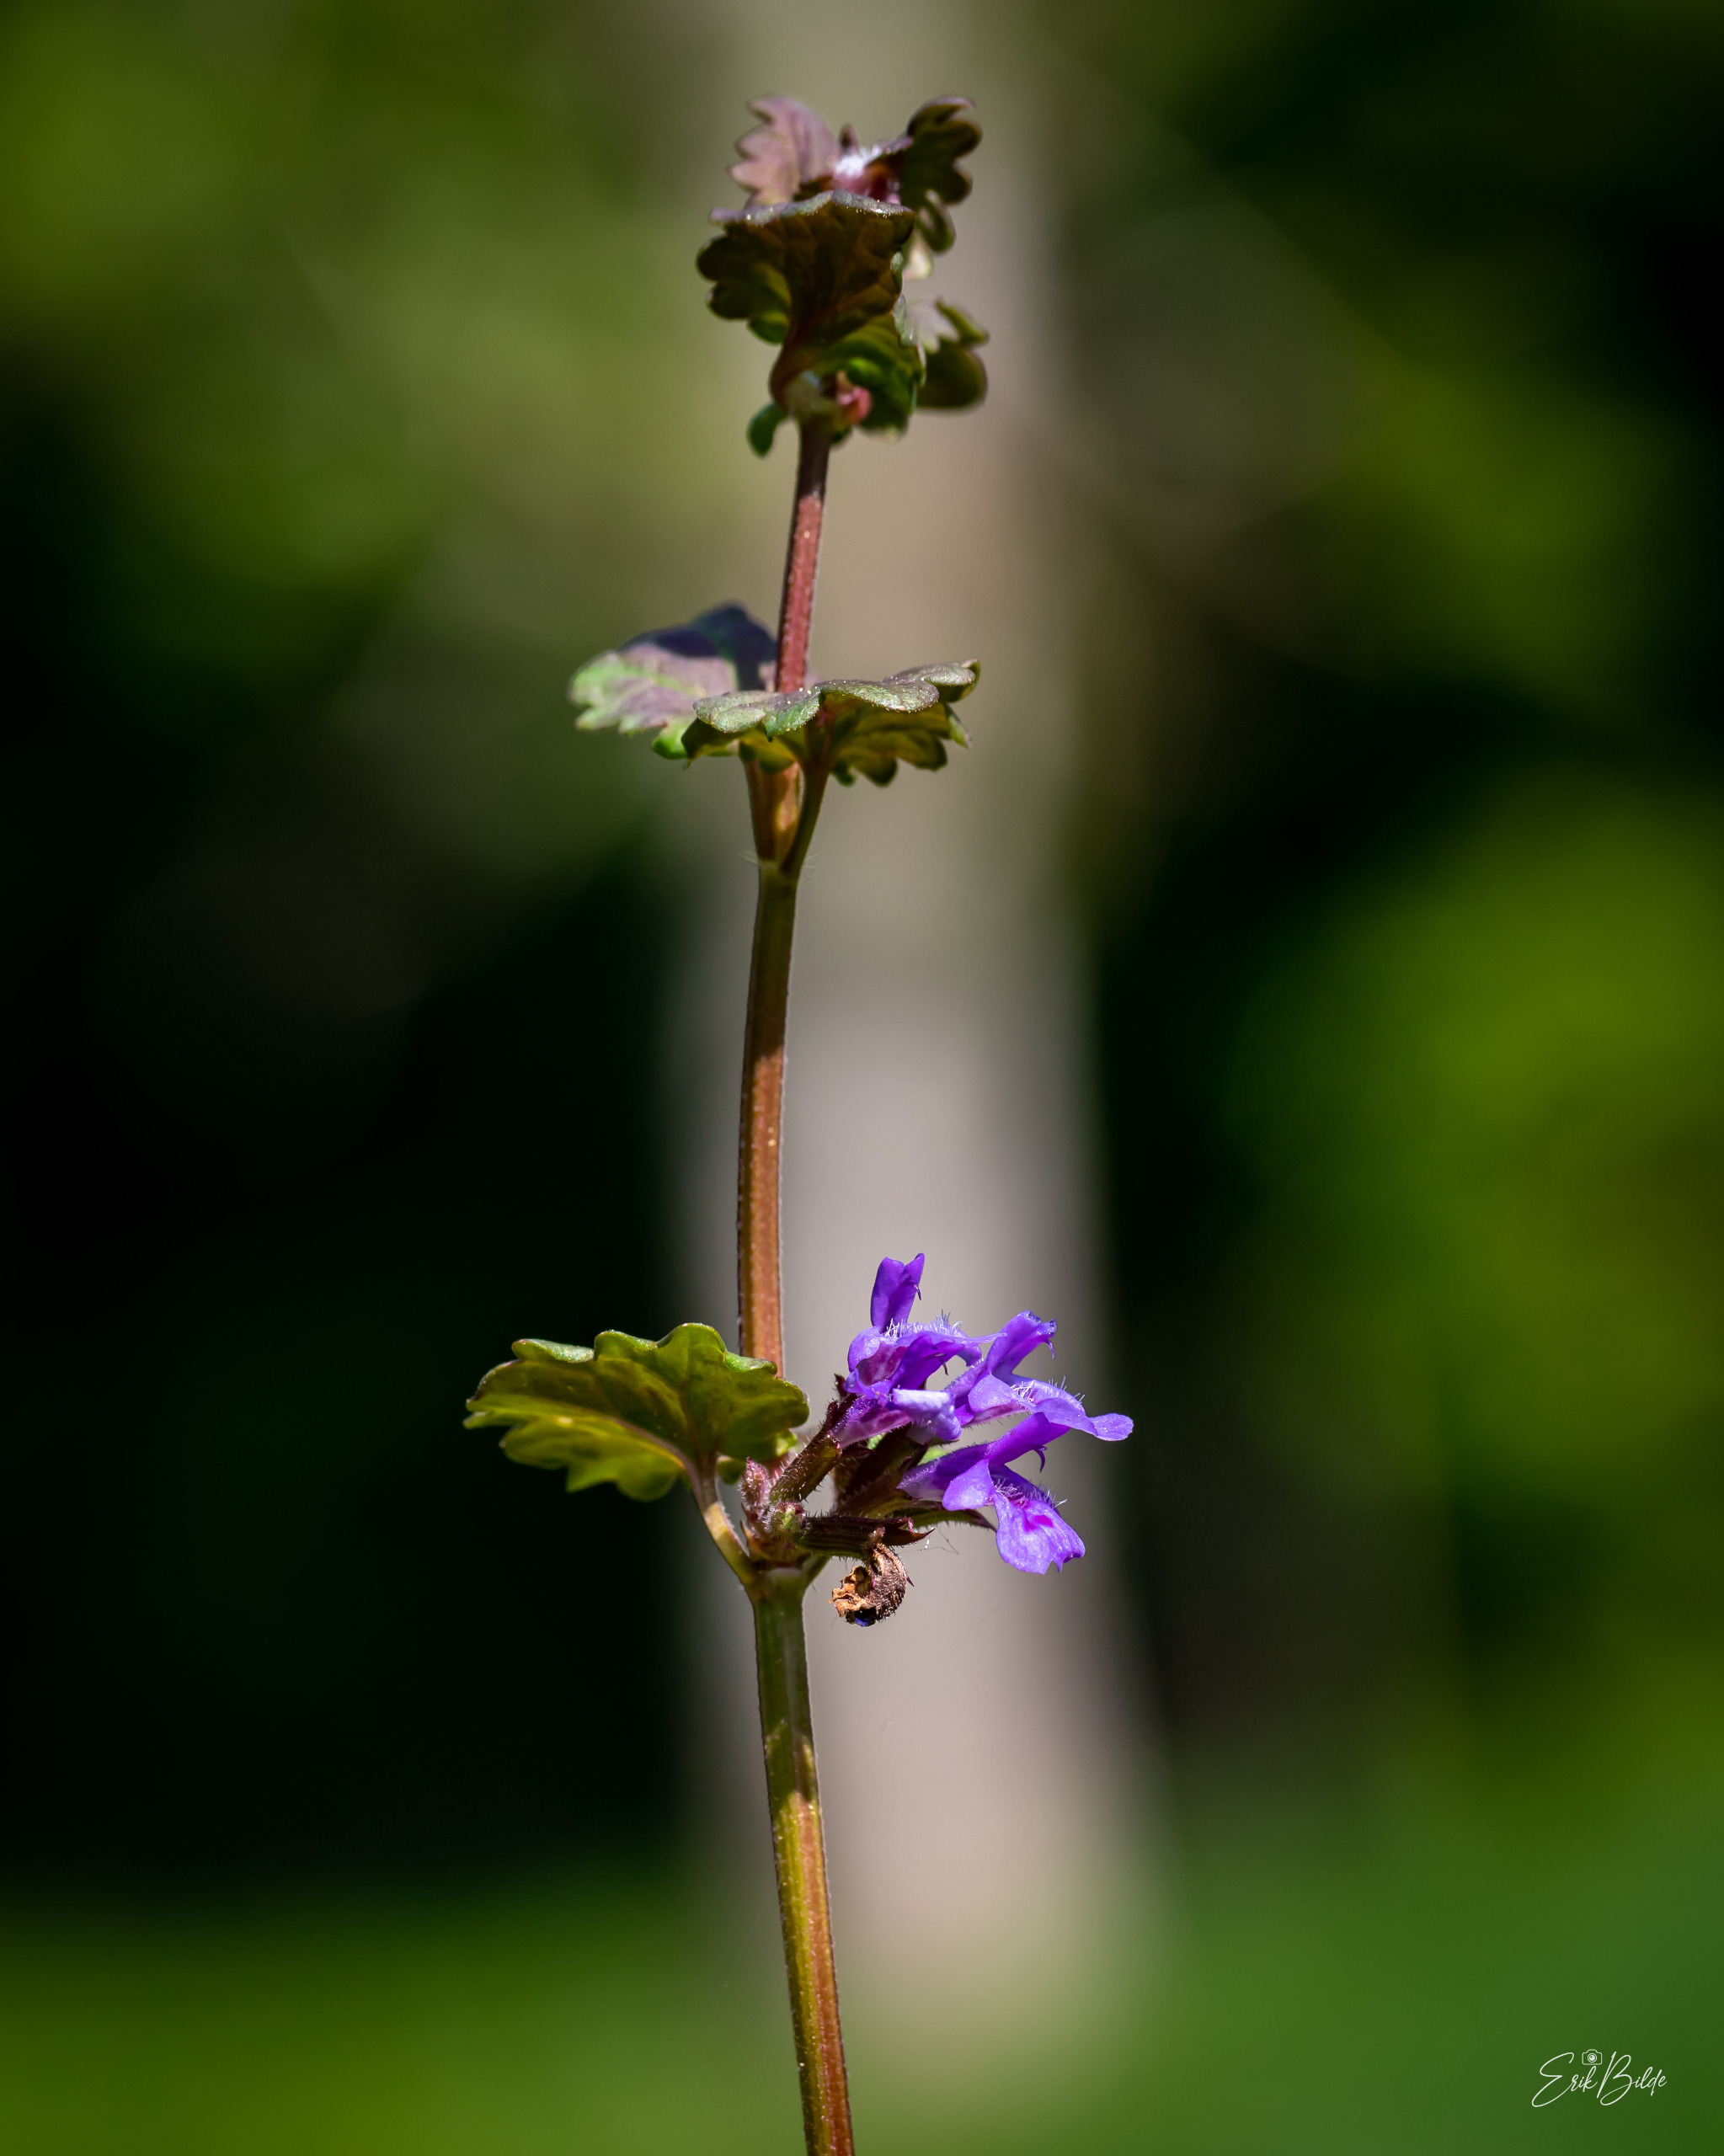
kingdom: Plantae
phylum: Tracheophyta
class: Magnoliopsida
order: Lamiales
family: Lamiaceae
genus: Glechoma
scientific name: Glechoma hederacea
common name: Korsknap
